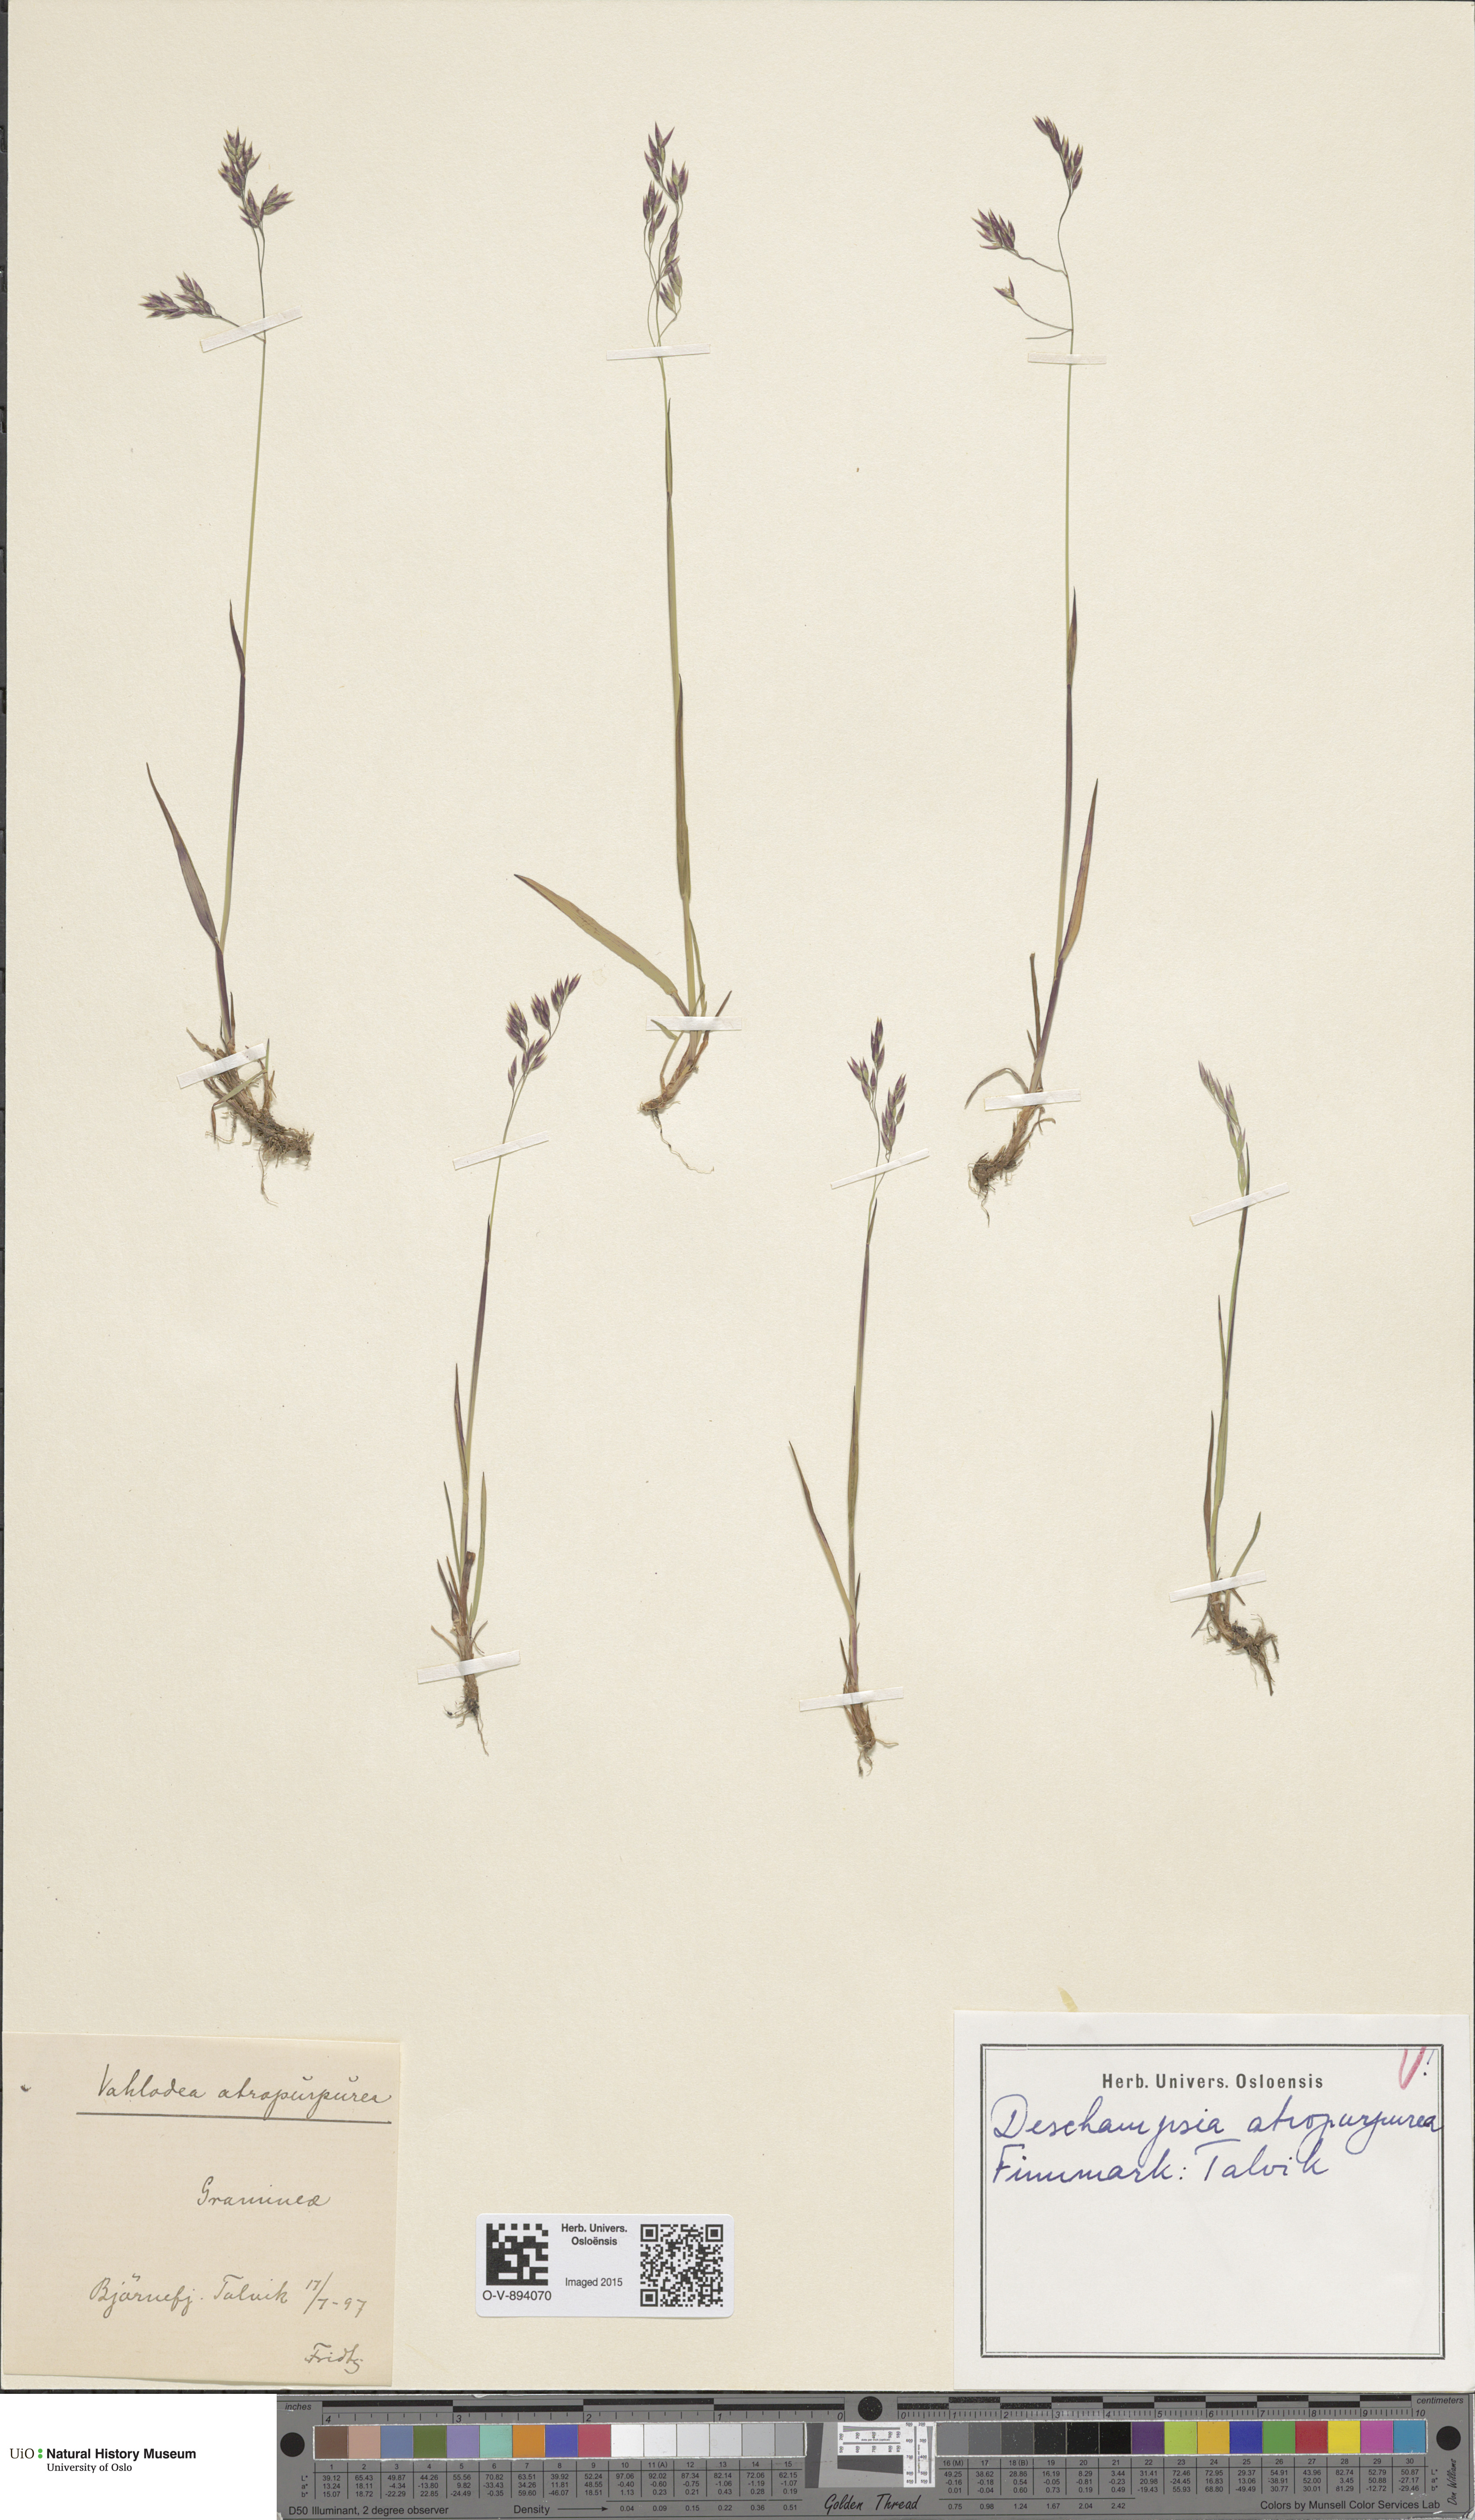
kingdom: Plantae
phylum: Tracheophyta
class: Liliopsida
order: Poales
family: Poaceae
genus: Vahlodea
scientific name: Vahlodea atropurpurea
